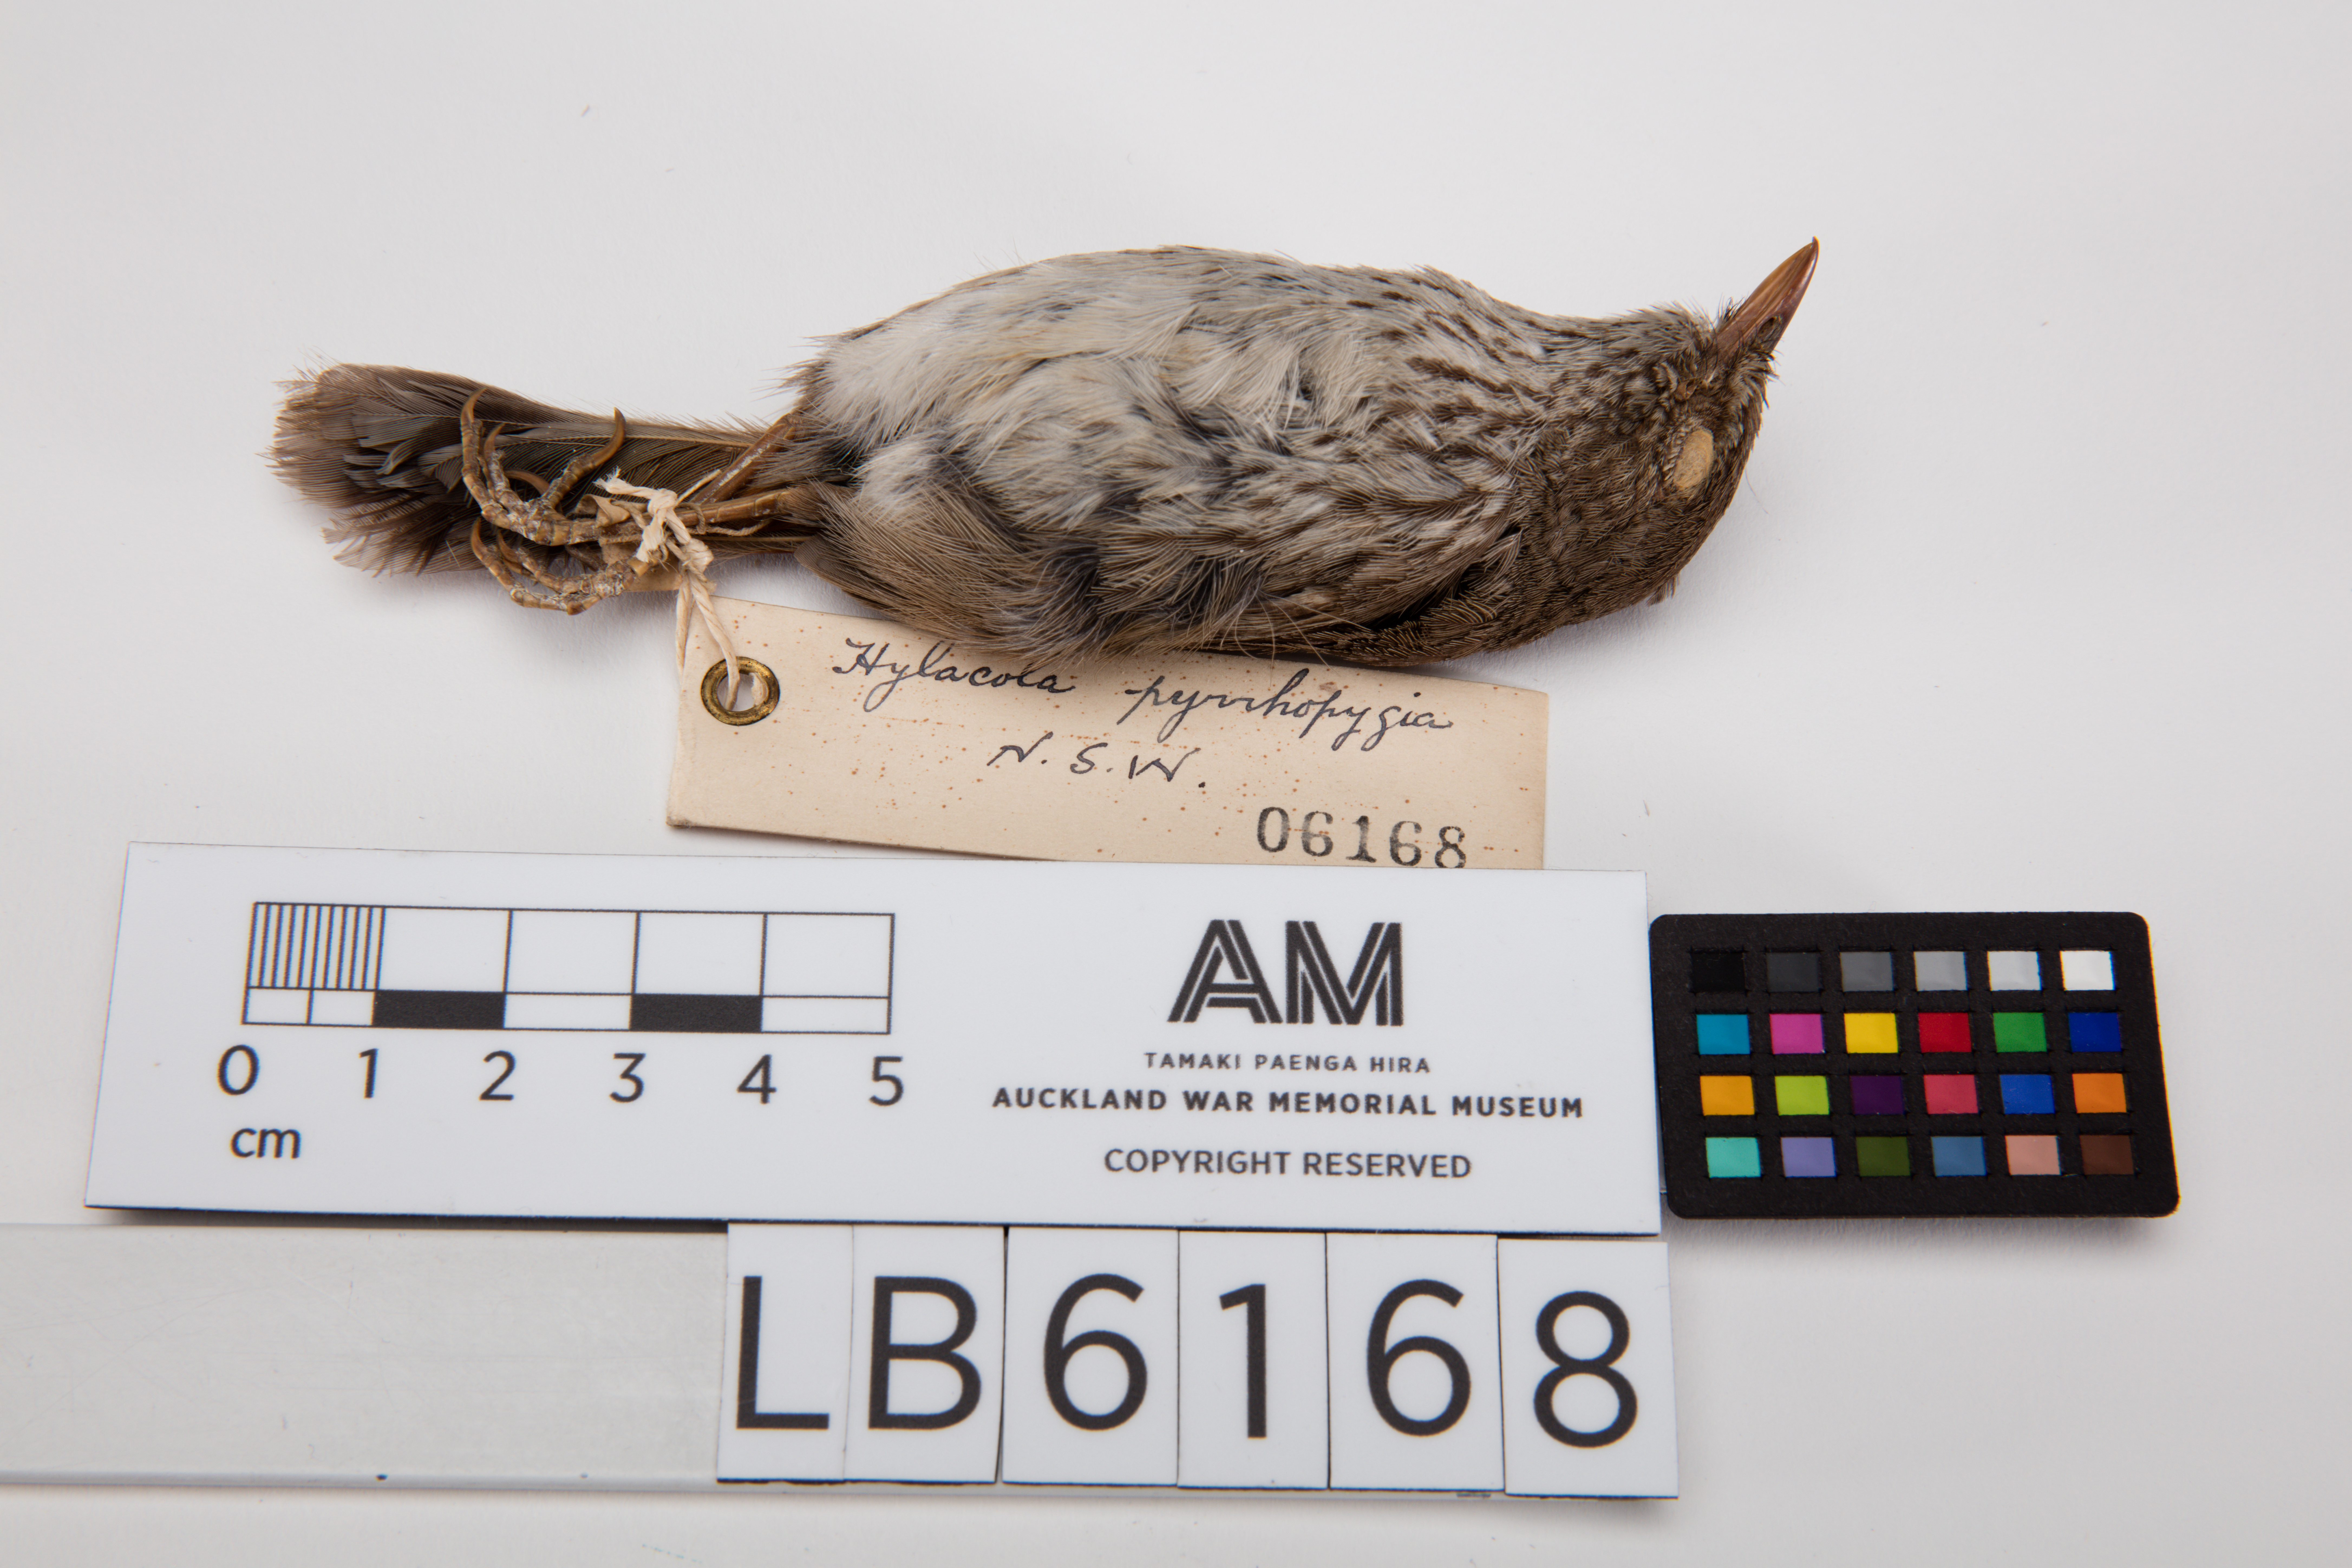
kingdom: Animalia
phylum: Chordata
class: Aves
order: Passeriformes
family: Acanthizidae
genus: Calamanthus
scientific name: Calamanthus pyrrhopygius
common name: Chestnut-rumped heathwren
